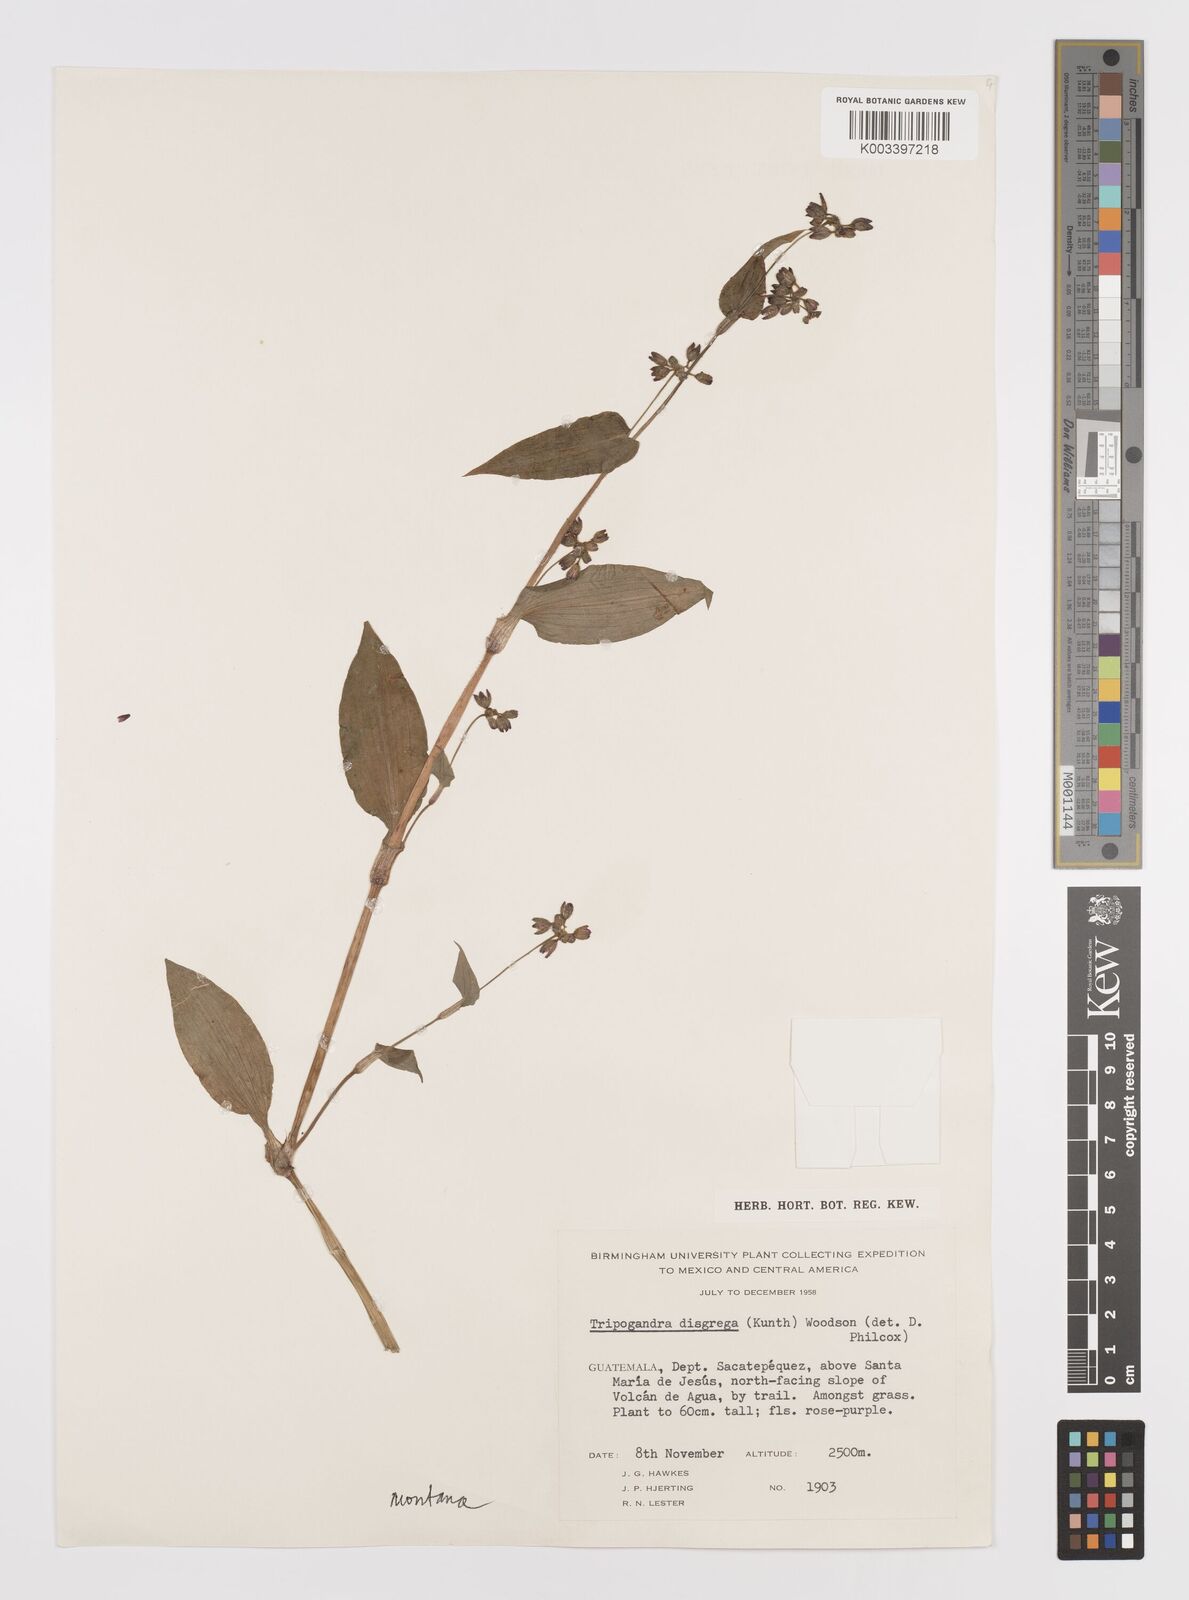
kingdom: Plantae
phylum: Tracheophyta
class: Liliopsida
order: Commelinales
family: Commelinaceae
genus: Callisia
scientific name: Callisia diuretica
